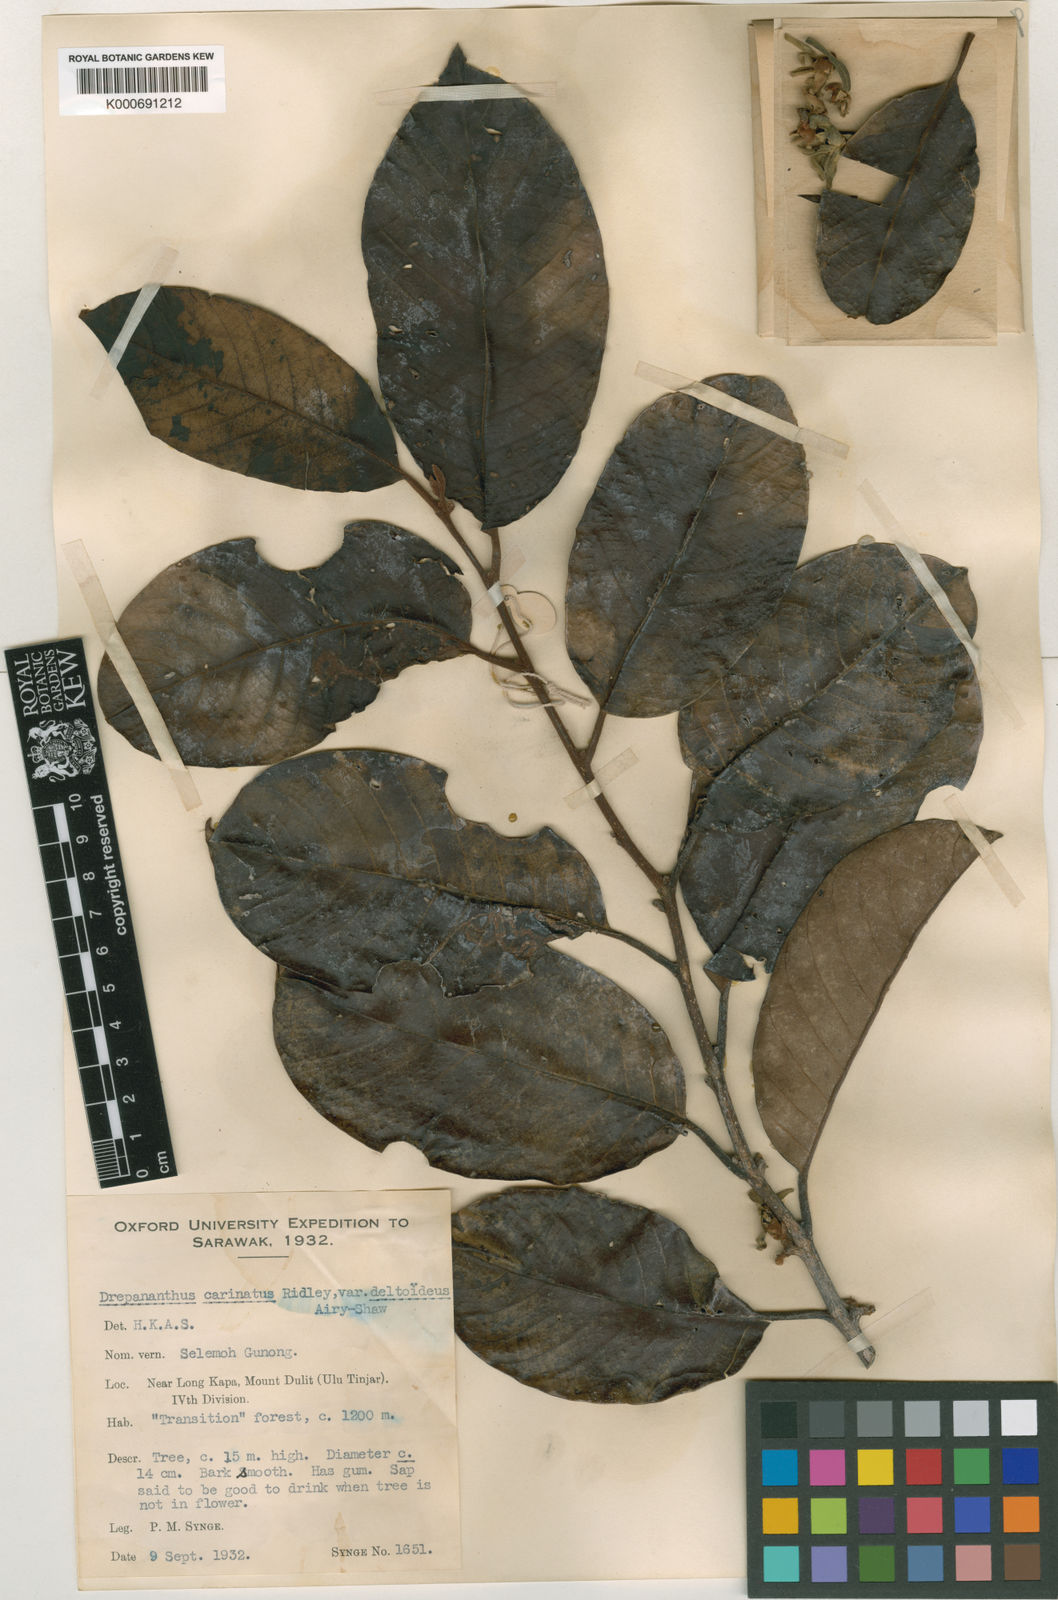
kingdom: Plantae
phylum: Tracheophyta
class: Magnoliopsida
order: Magnoliales
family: Annonaceae
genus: Drepananthus
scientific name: Drepananthus deltoideus
